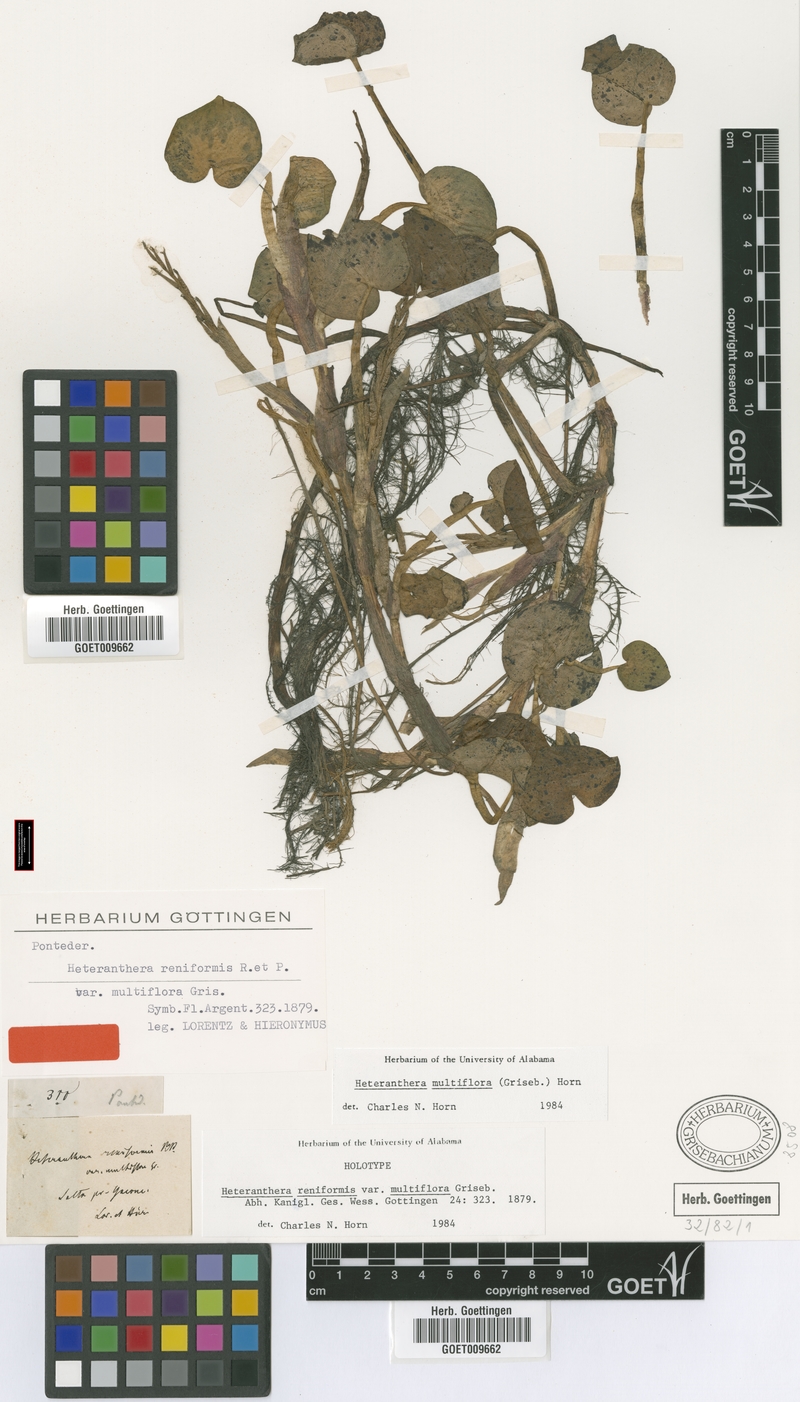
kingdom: Plantae
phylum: Tracheophyta
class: Liliopsida
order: Commelinales
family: Pontederiaceae
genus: Heteranthera
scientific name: Heteranthera multiflora
